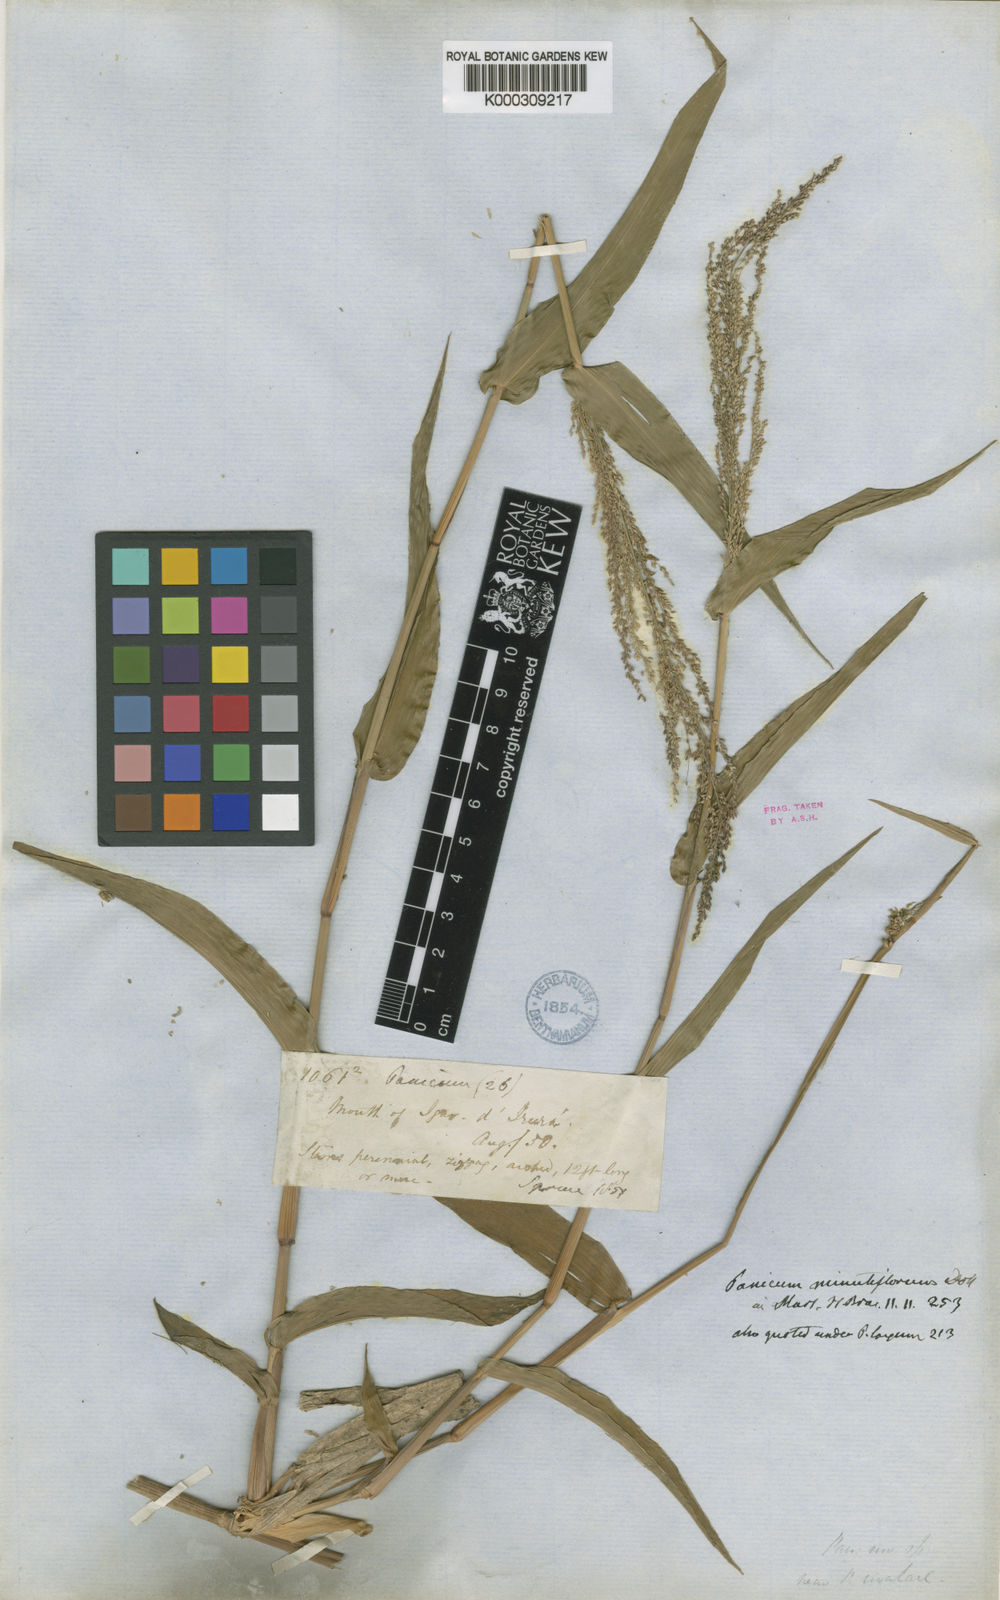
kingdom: Plantae
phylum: Tracheophyta
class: Liliopsida
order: Poales
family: Poaceae
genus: Rugoloa
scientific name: Rugoloa hylaeica
